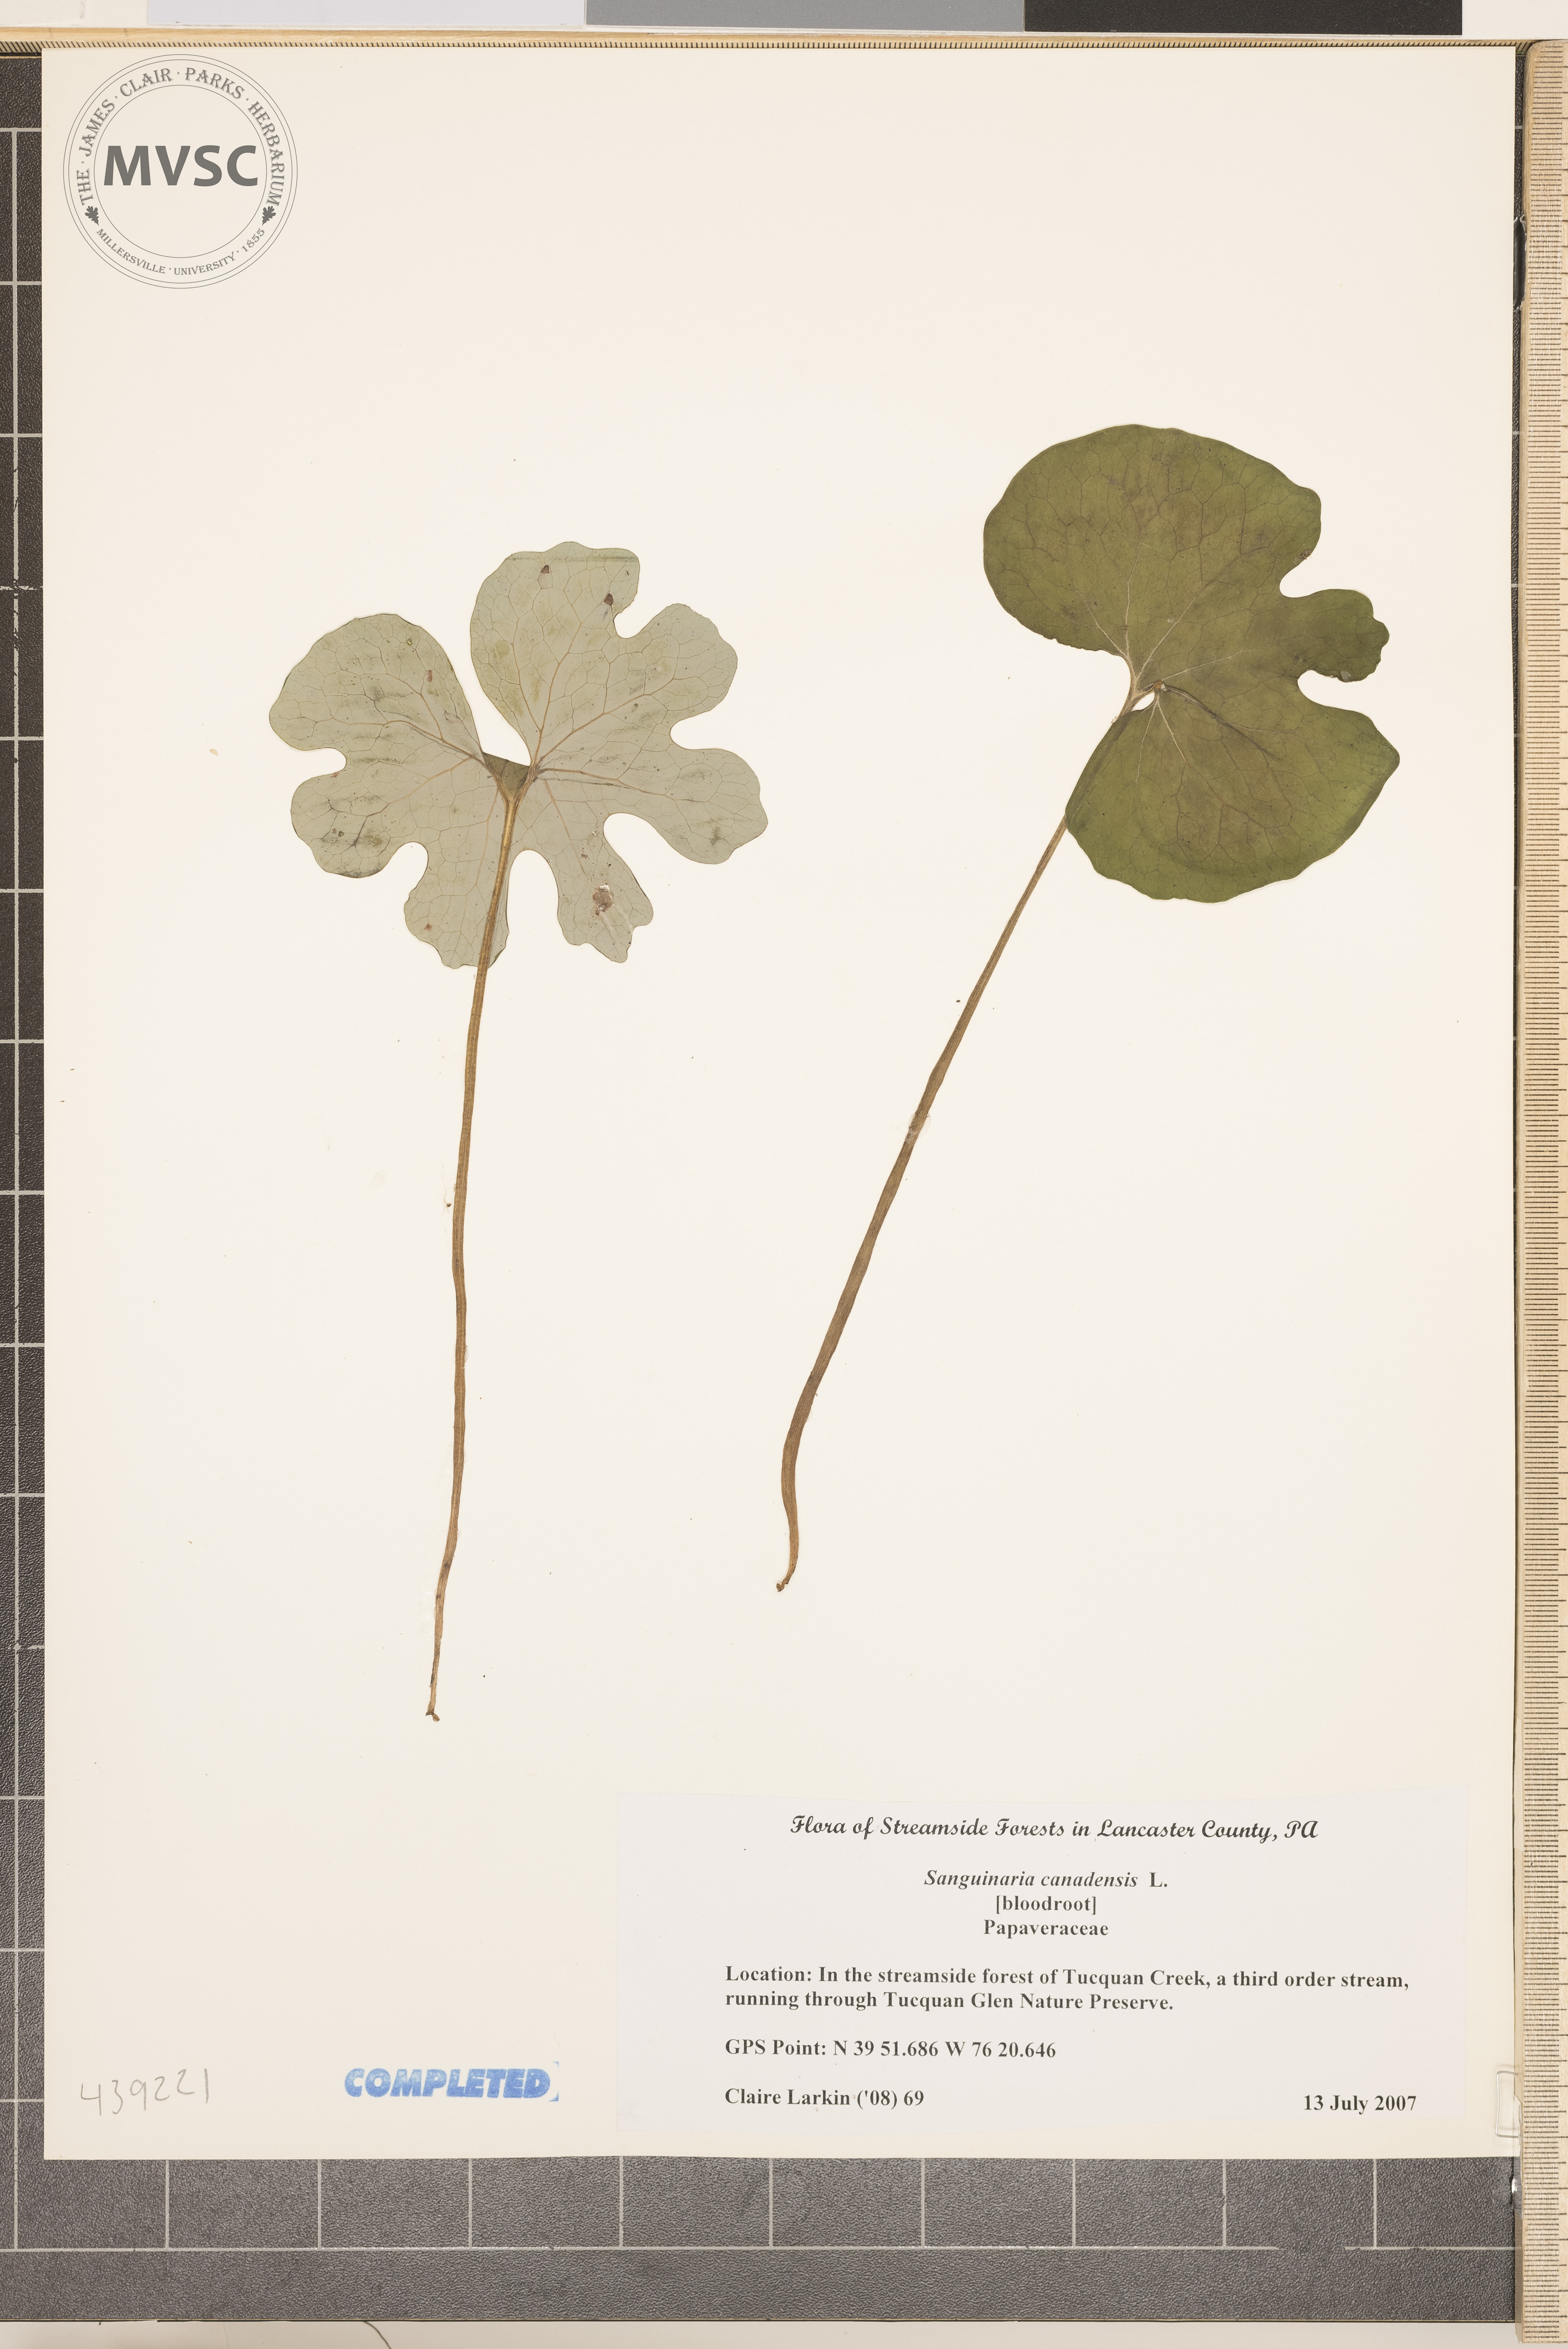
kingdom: Plantae
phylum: Tracheophyta
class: Magnoliopsida
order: Ranunculales
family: Papaveraceae
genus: Sanguinaria
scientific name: Sanguinaria canadensis
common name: Bloodroot
